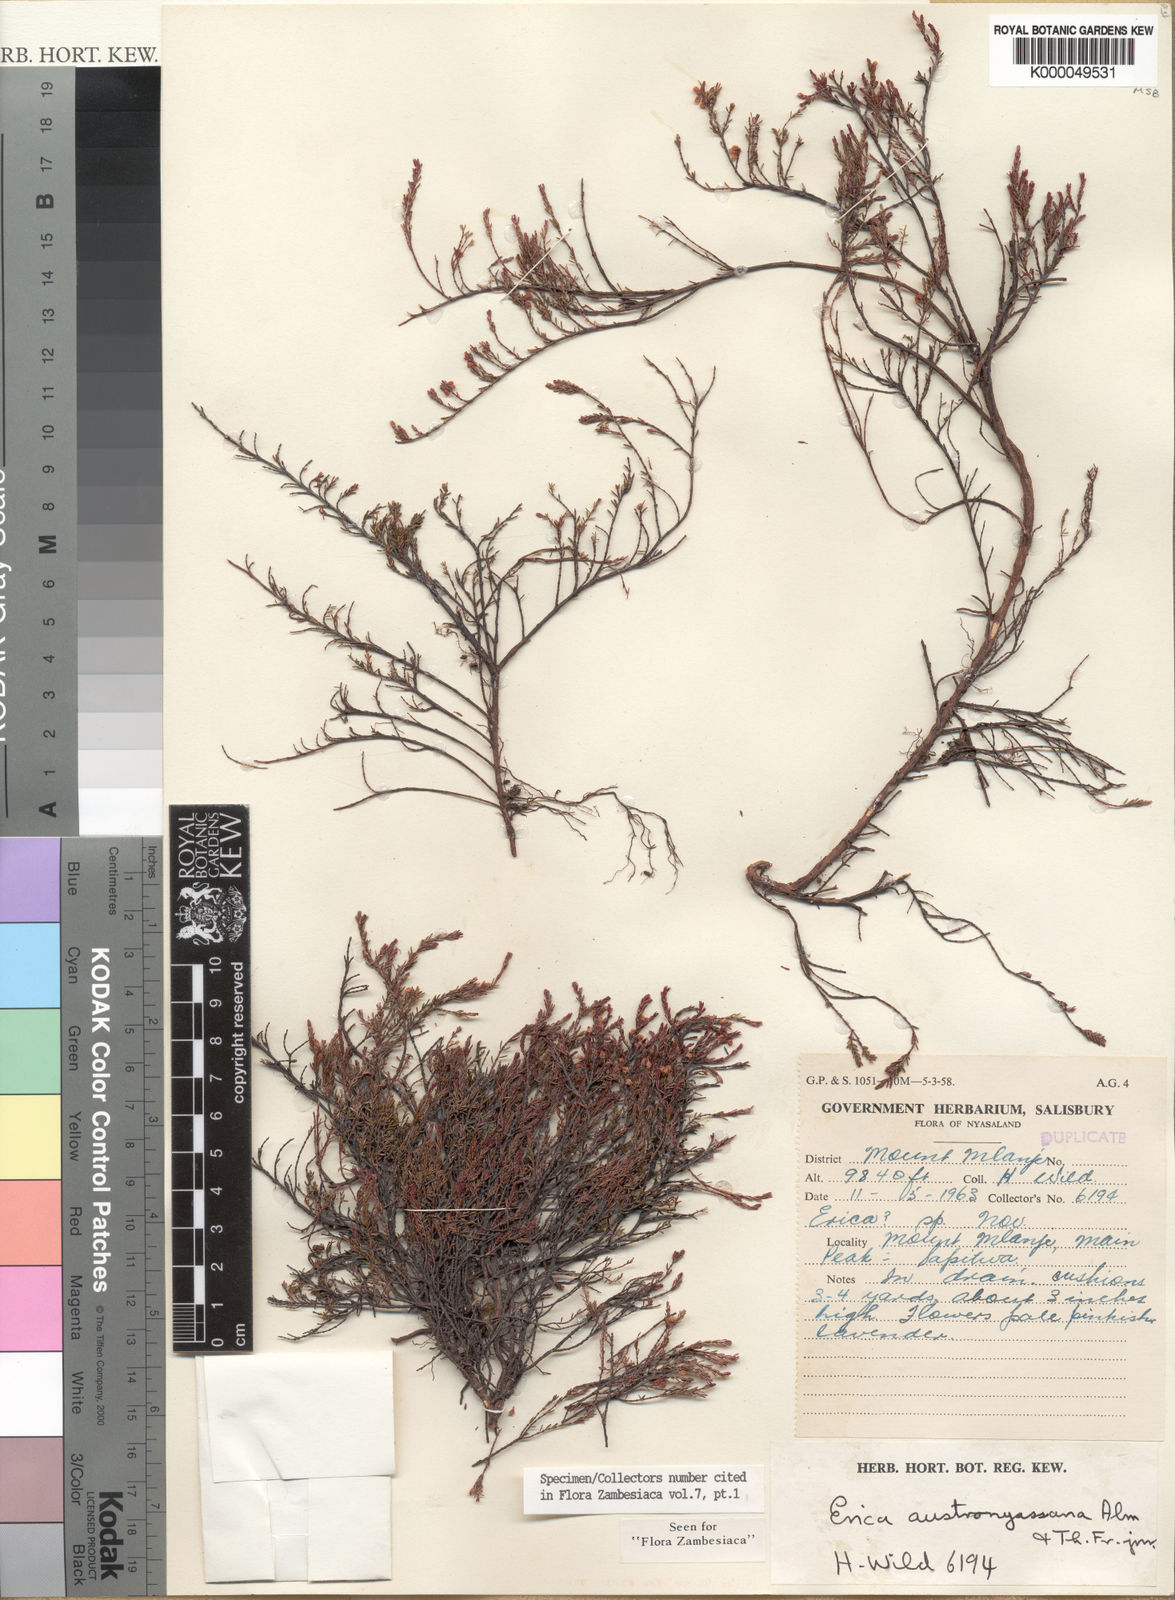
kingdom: Plantae
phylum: Tracheophyta
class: Magnoliopsida
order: Ericales
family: Ericaceae
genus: Erica
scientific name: Erica austronyassana
